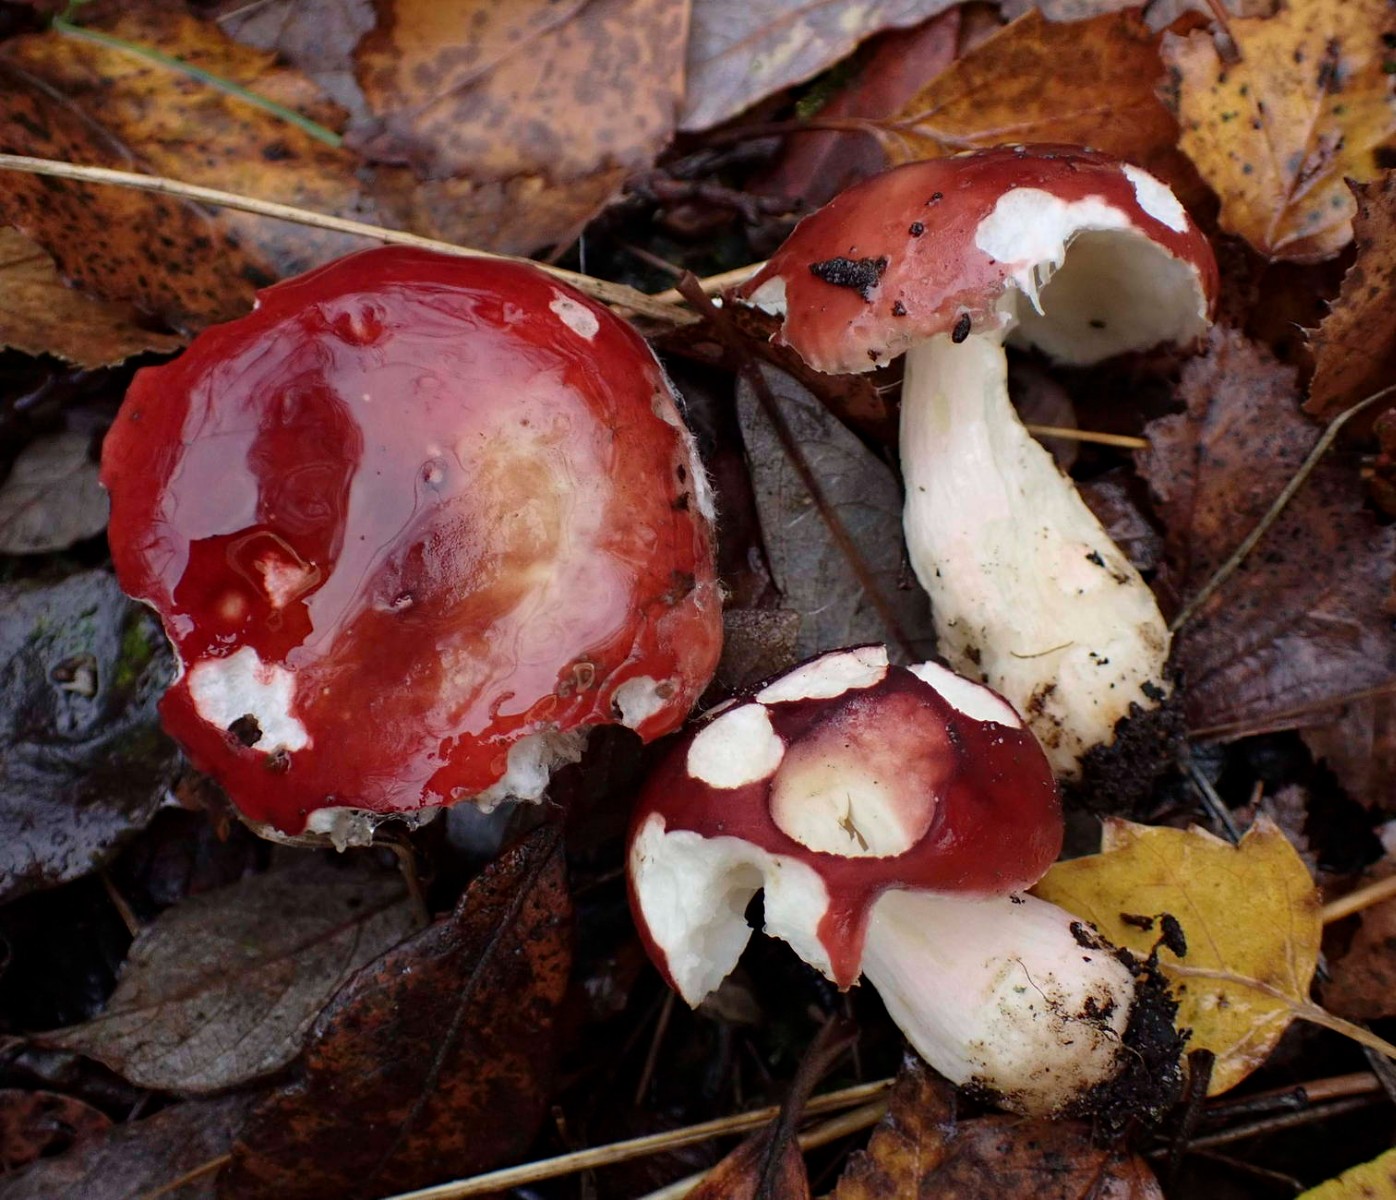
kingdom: Fungi
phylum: Basidiomycota
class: Agaricomycetes
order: Russulales
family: Russulaceae
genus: Russula
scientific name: Russula subrubens
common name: pile-skørhat
